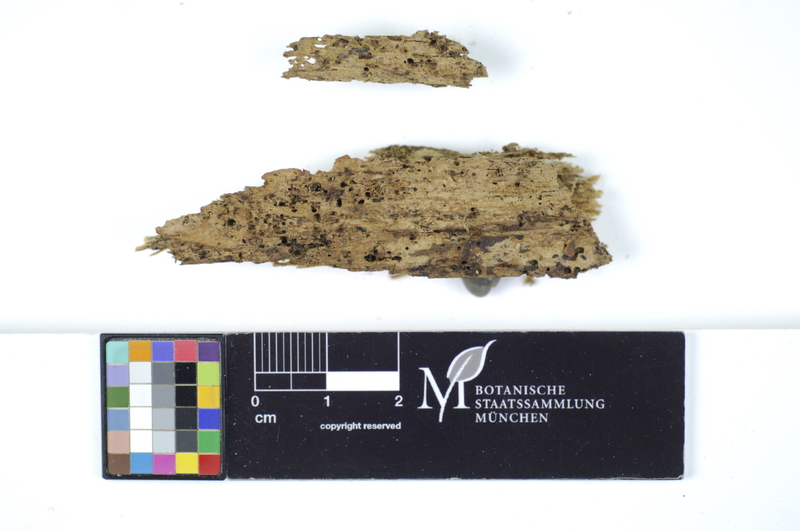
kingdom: Plantae
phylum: Tracheophyta
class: Pinopsida
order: Pinales
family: Pinaceae
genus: Pinus
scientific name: Pinus
